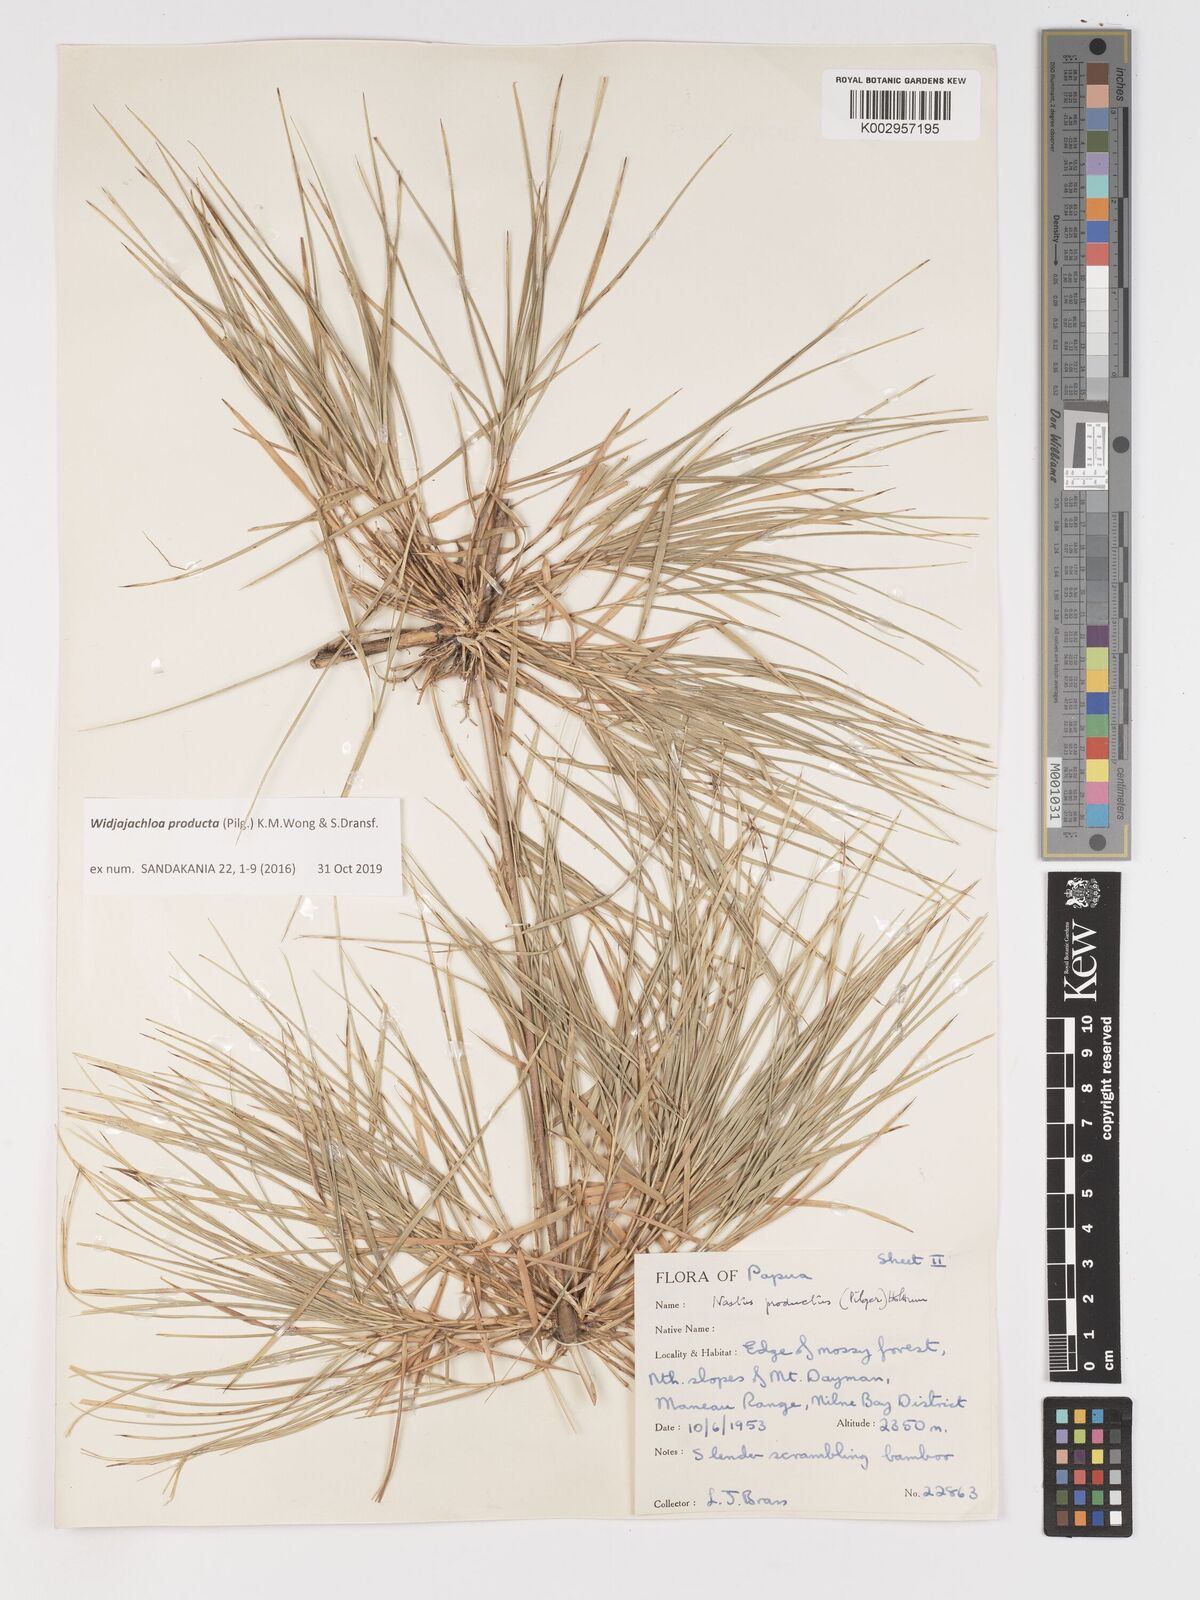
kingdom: Plantae
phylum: Tracheophyta
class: Liliopsida
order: Poales
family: Poaceae
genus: Widjajachloa
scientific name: Widjajachloa producta
